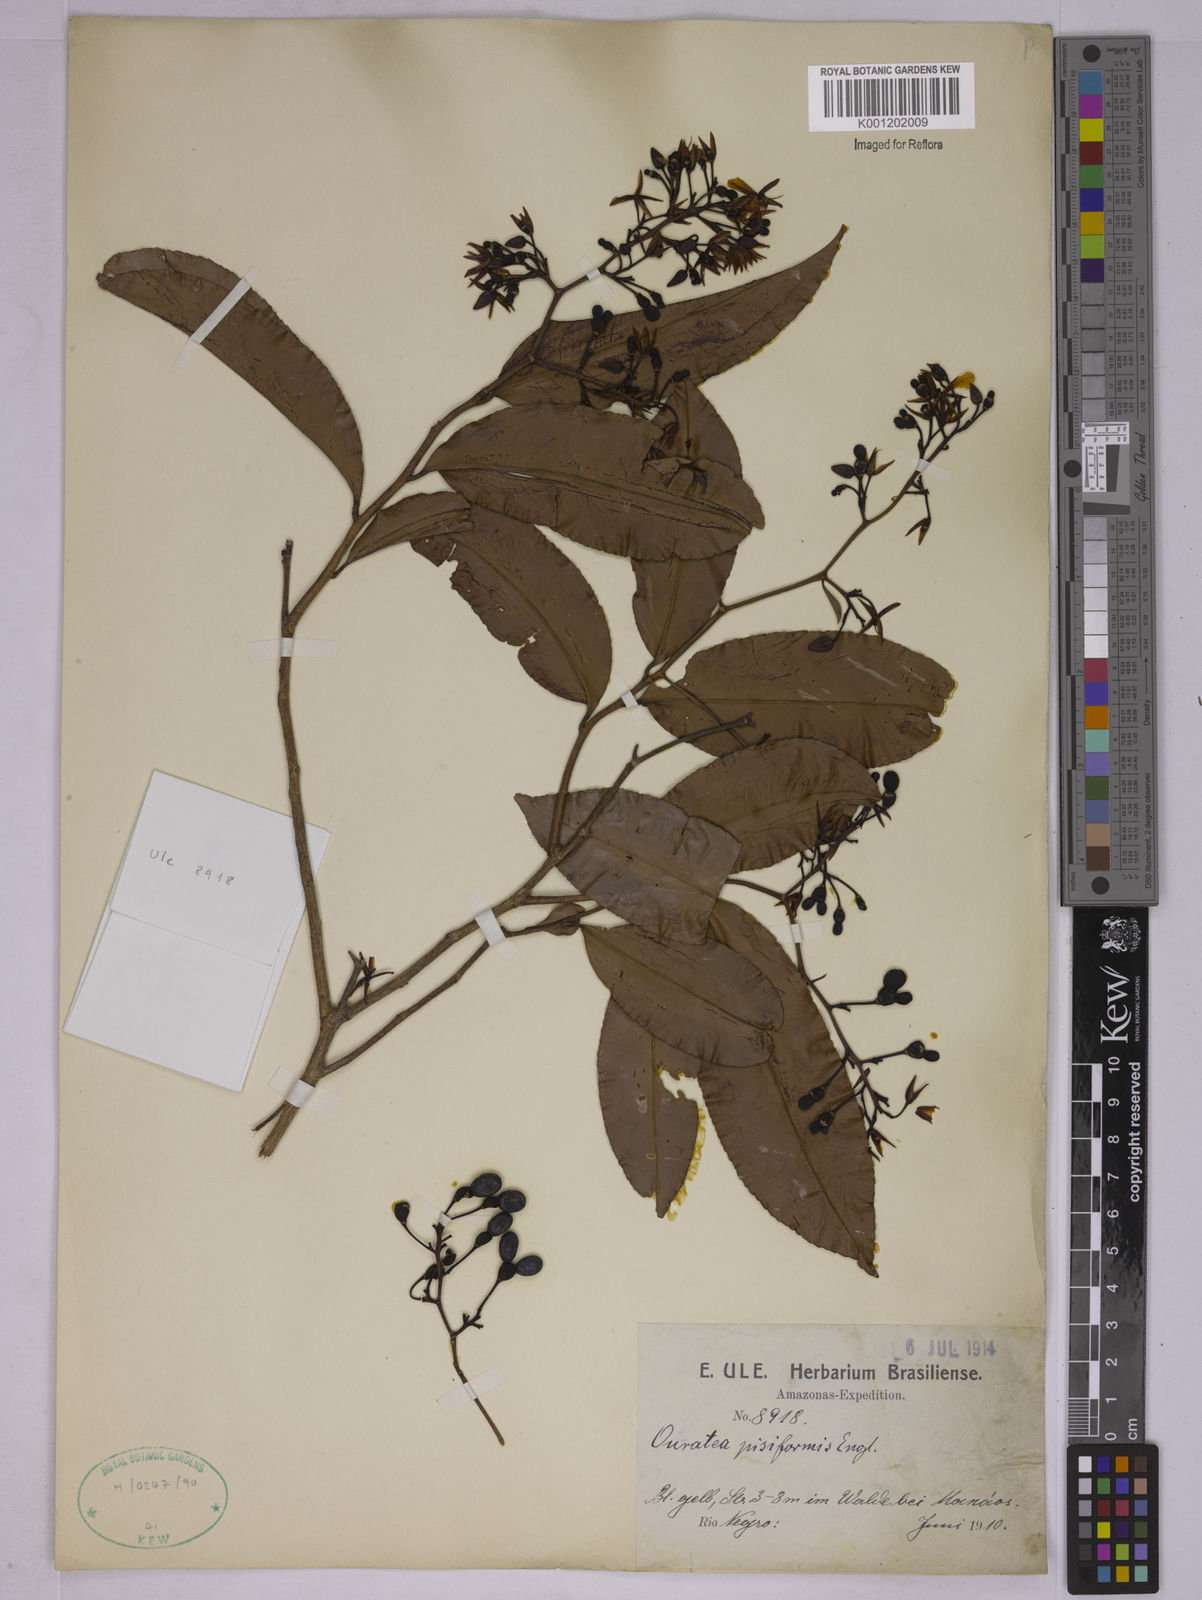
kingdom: Plantae
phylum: Tracheophyta
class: Magnoliopsida
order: Malpighiales
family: Ochnaceae
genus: Ouratea
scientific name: Ouratea pisiformis
